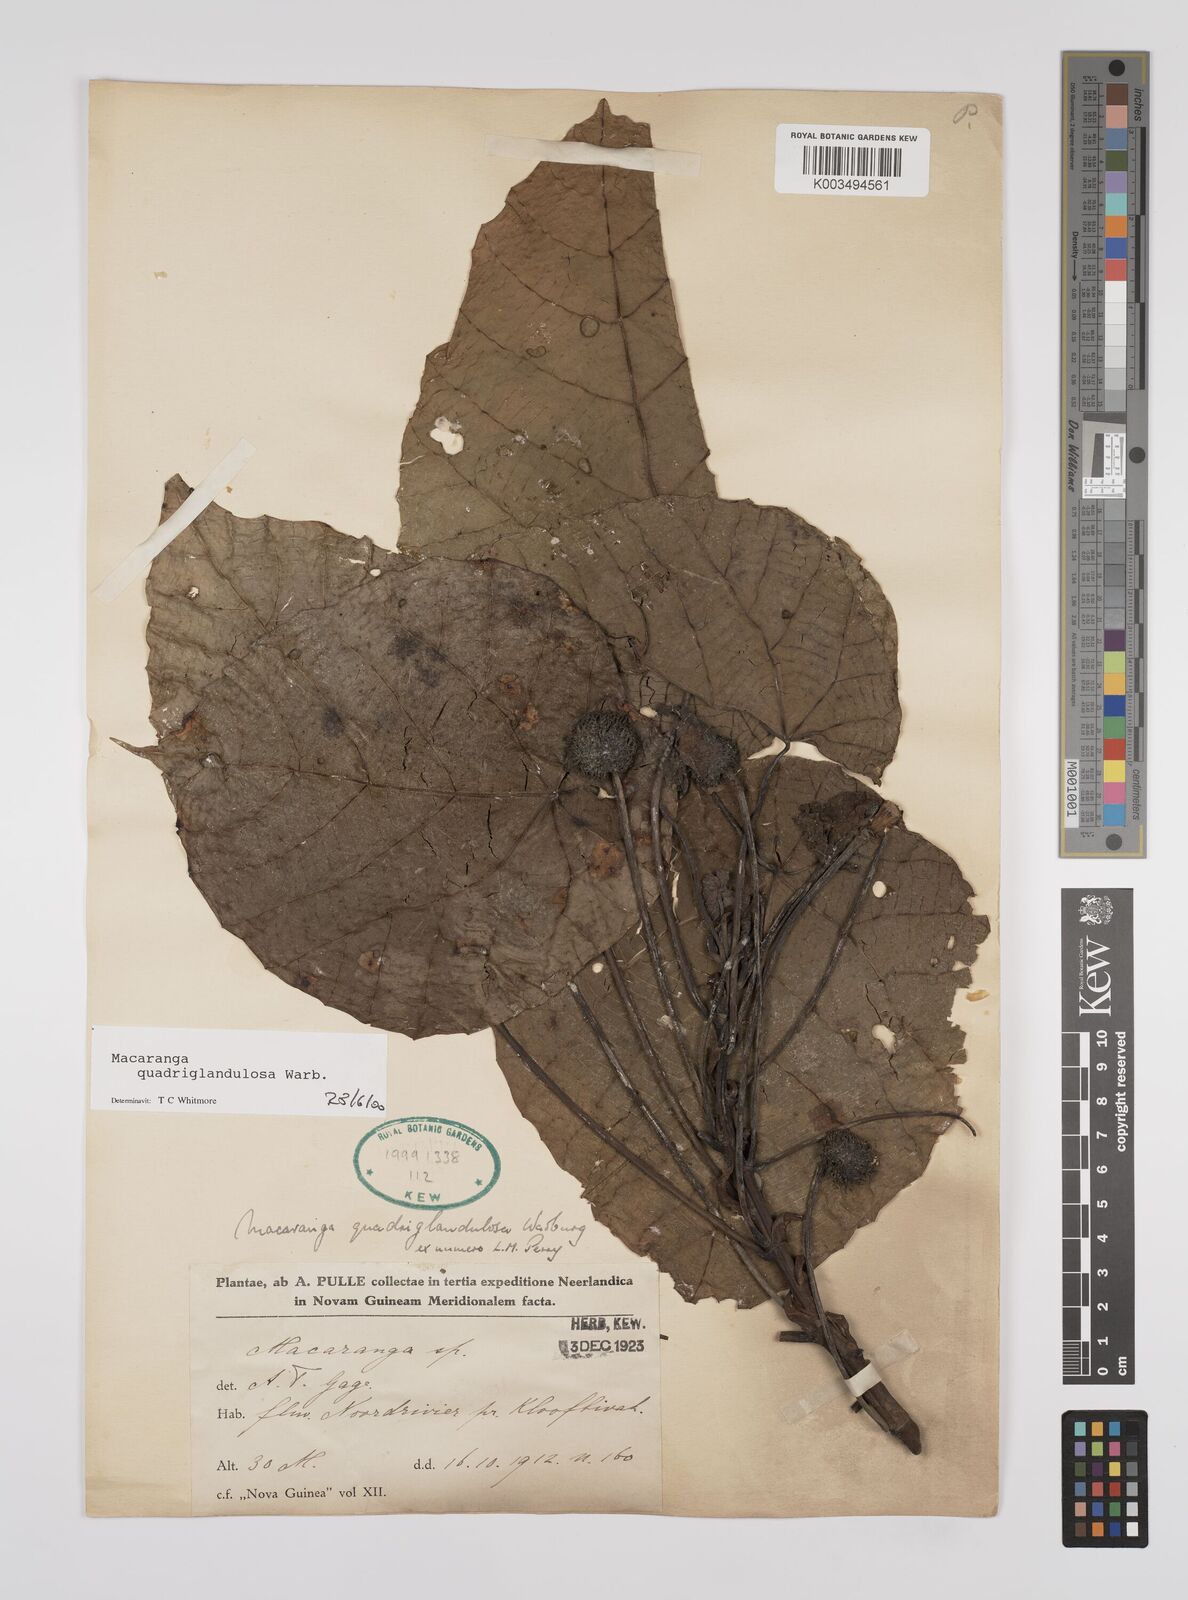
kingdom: Plantae
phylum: Tracheophyta
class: Magnoliopsida
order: Malpighiales
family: Euphorbiaceae
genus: Macaranga
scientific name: Macaranga quadriglandulosa
